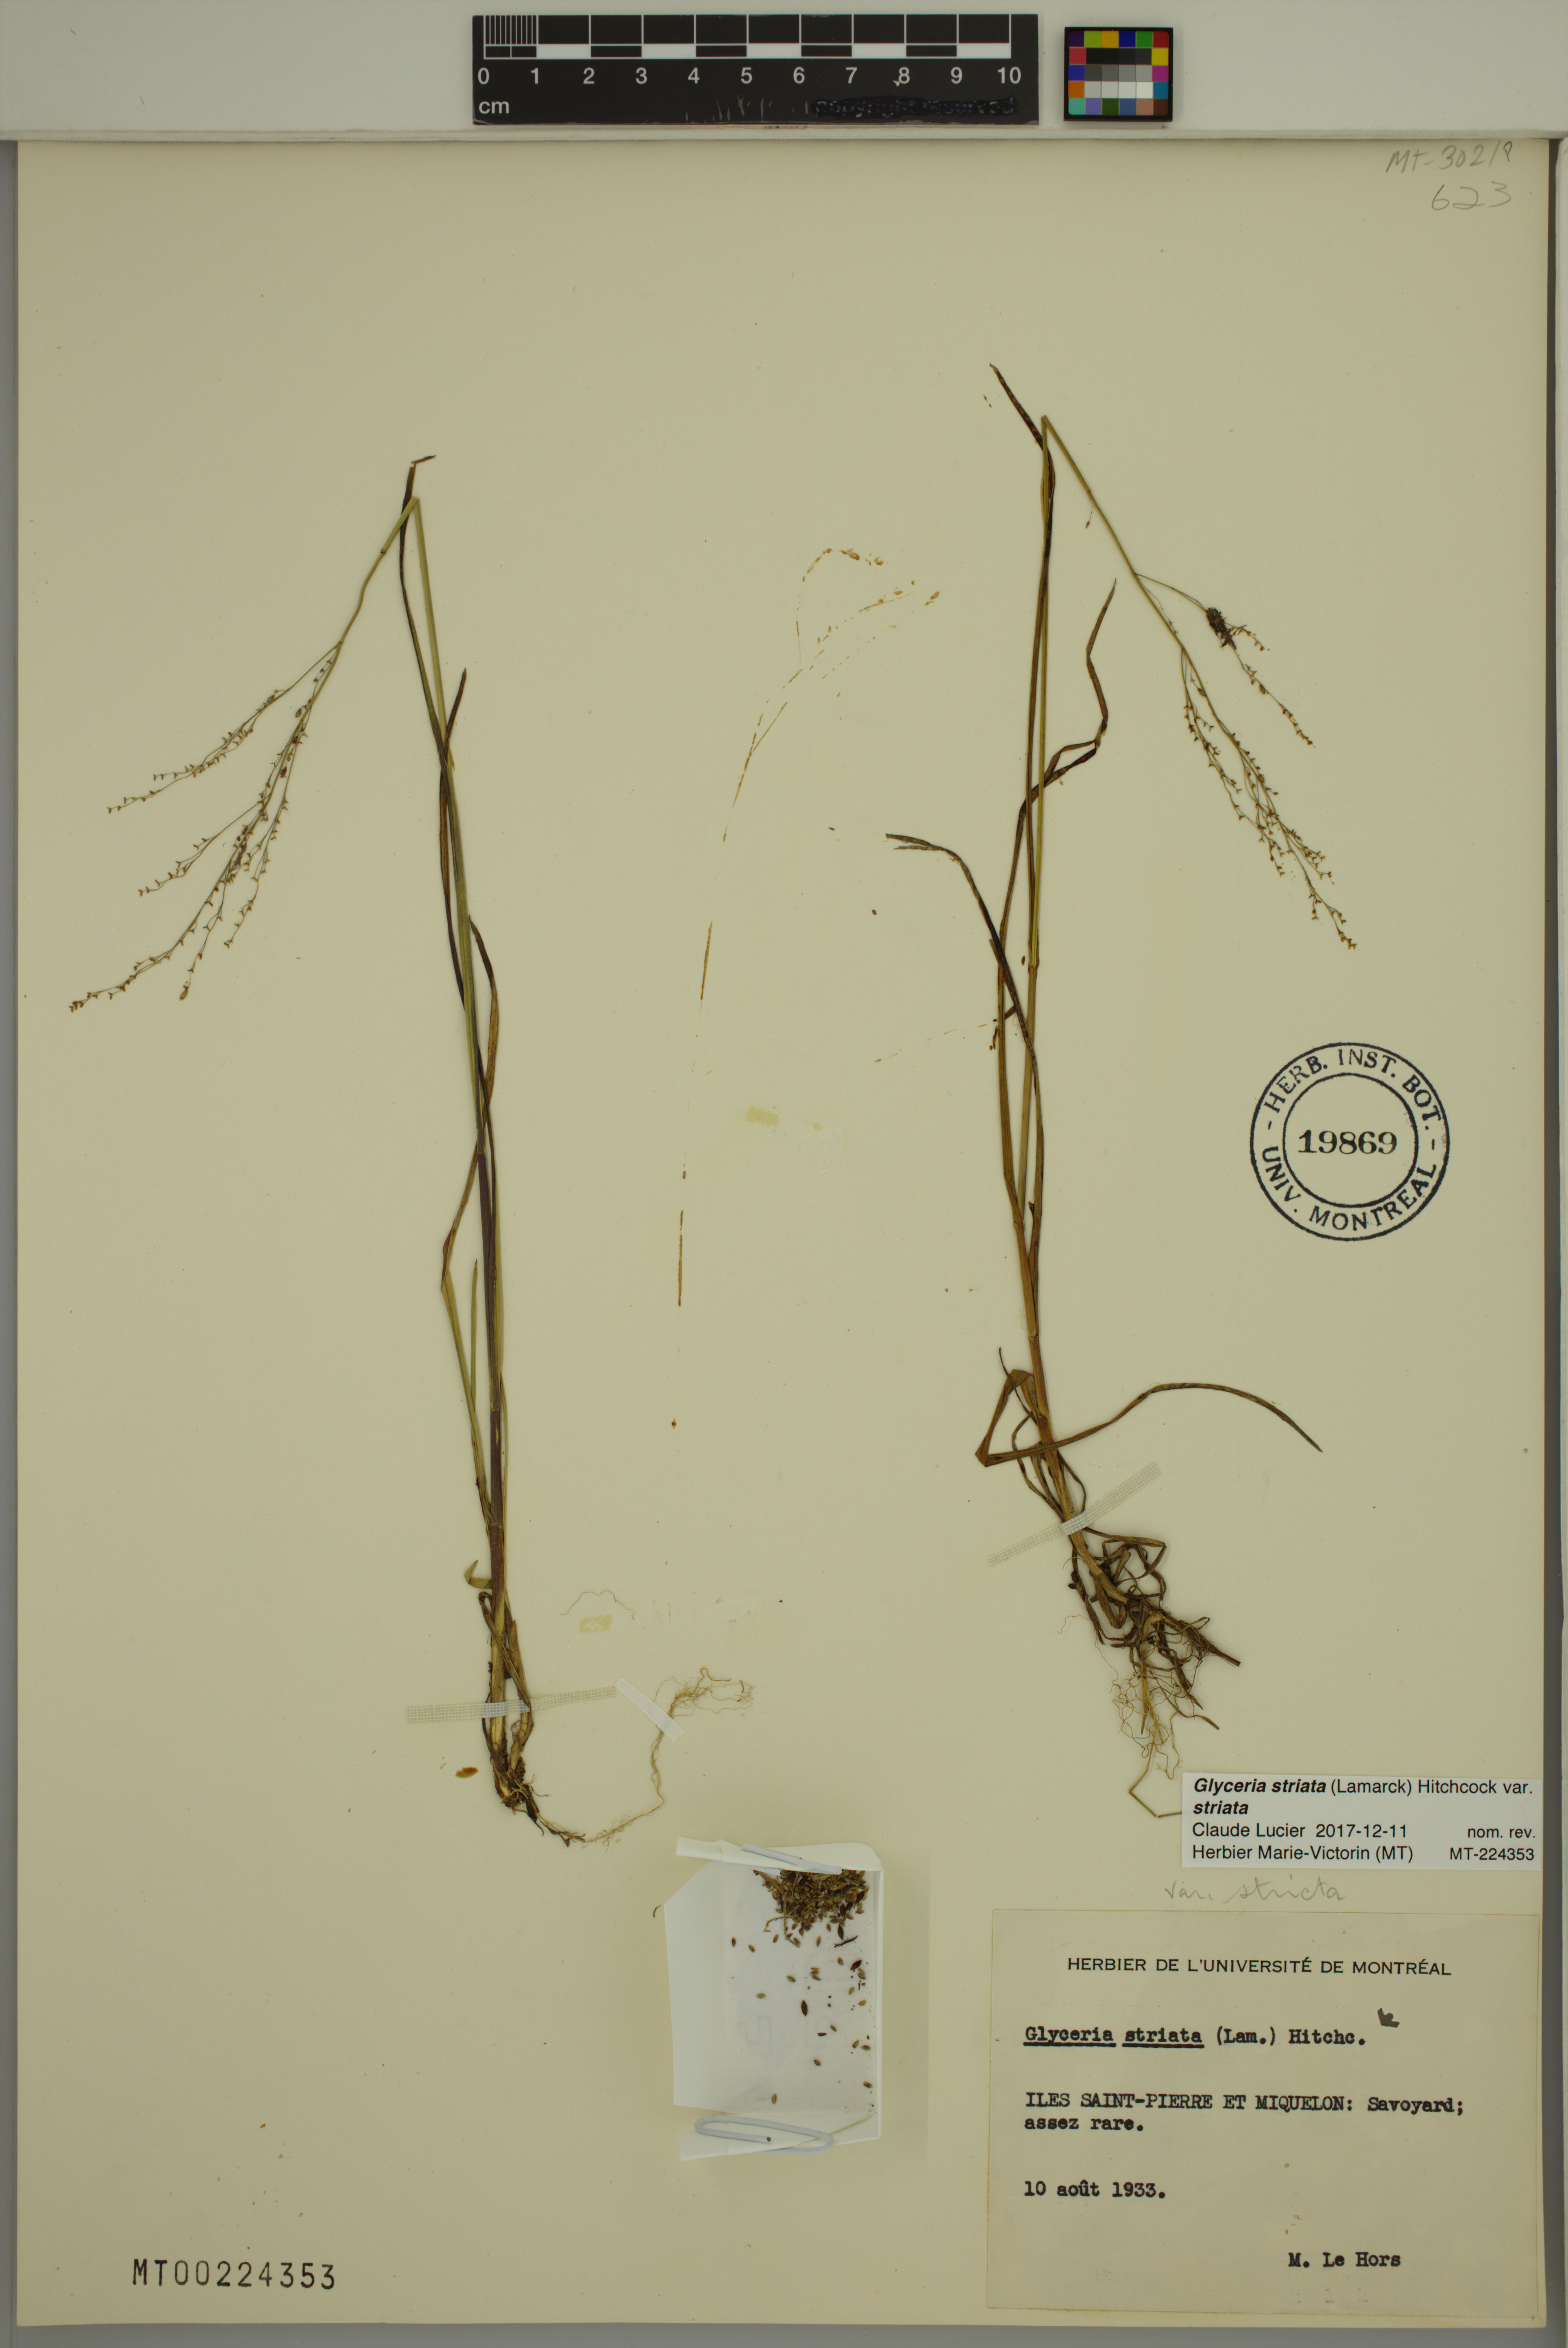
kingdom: Plantae
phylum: Tracheophyta
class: Liliopsida
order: Poales
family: Poaceae
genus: Glyceria
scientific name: Glyceria striata
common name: Fowl manna grass
